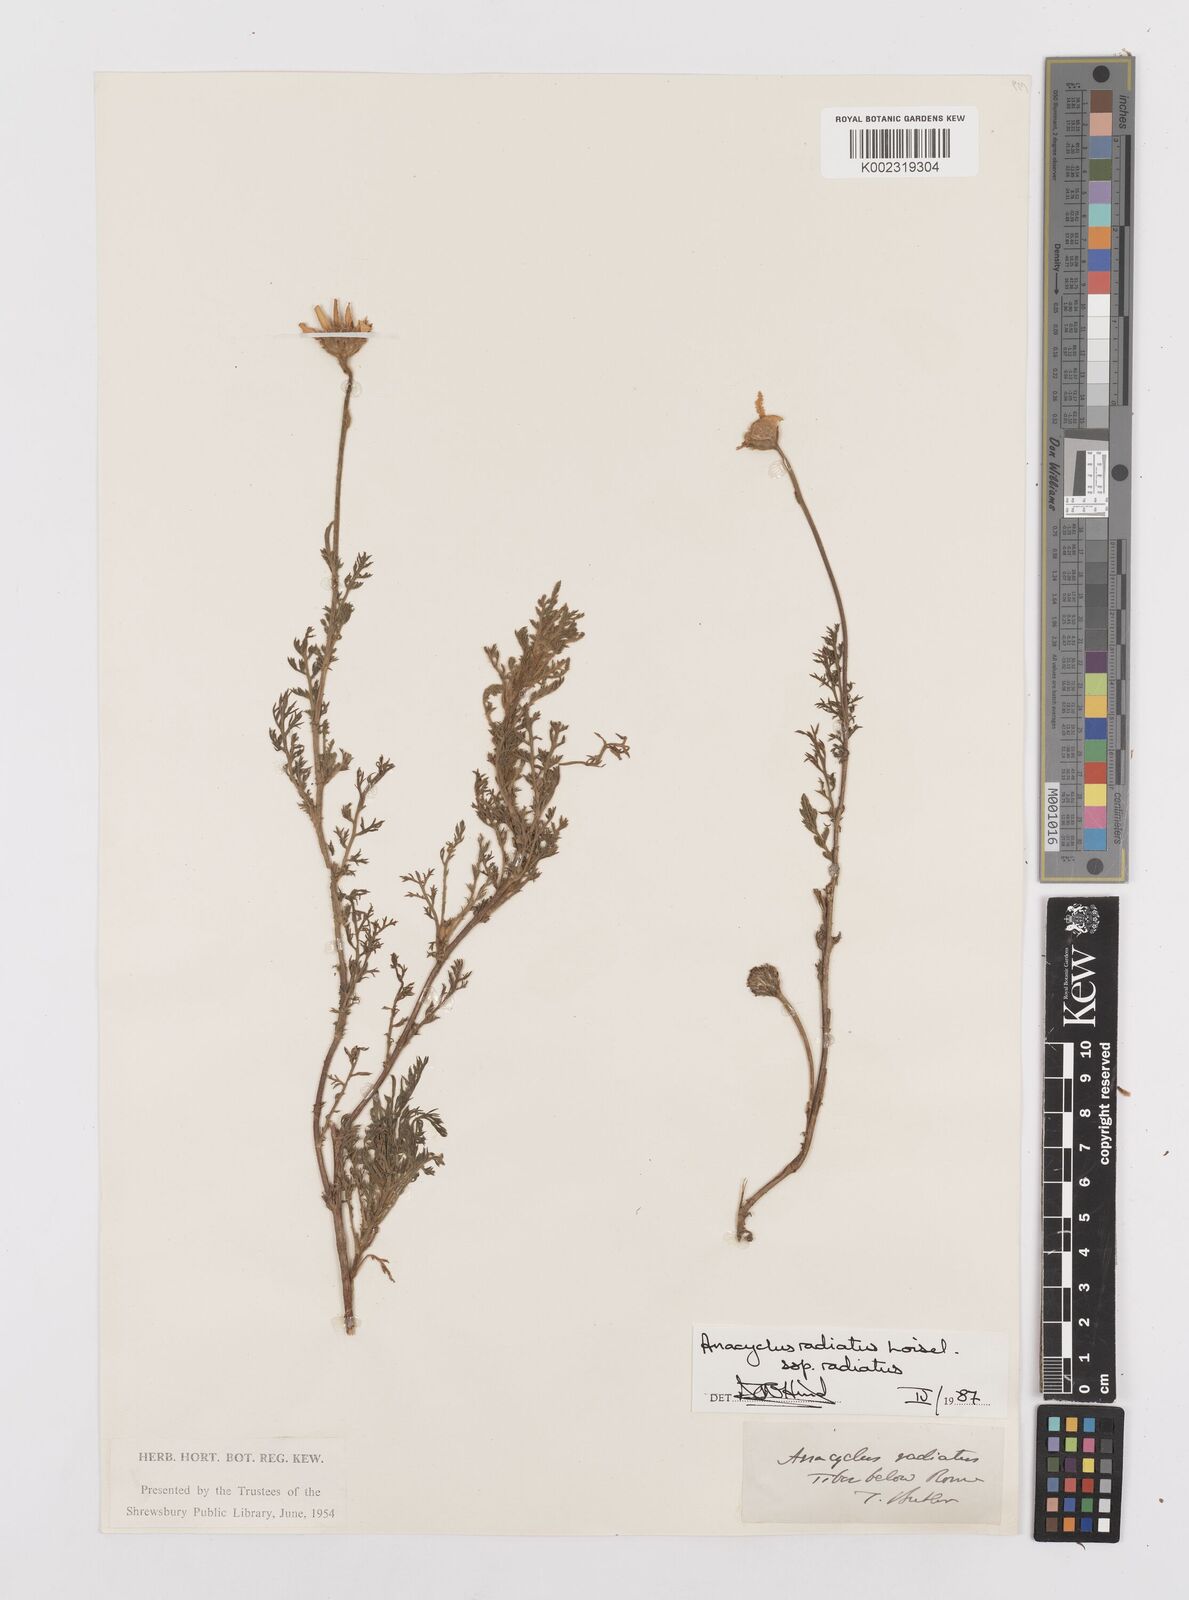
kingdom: Plantae
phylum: Tracheophyta
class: Magnoliopsida
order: Asterales
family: Asteraceae
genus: Anacyclus
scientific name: Anacyclus radiatus
